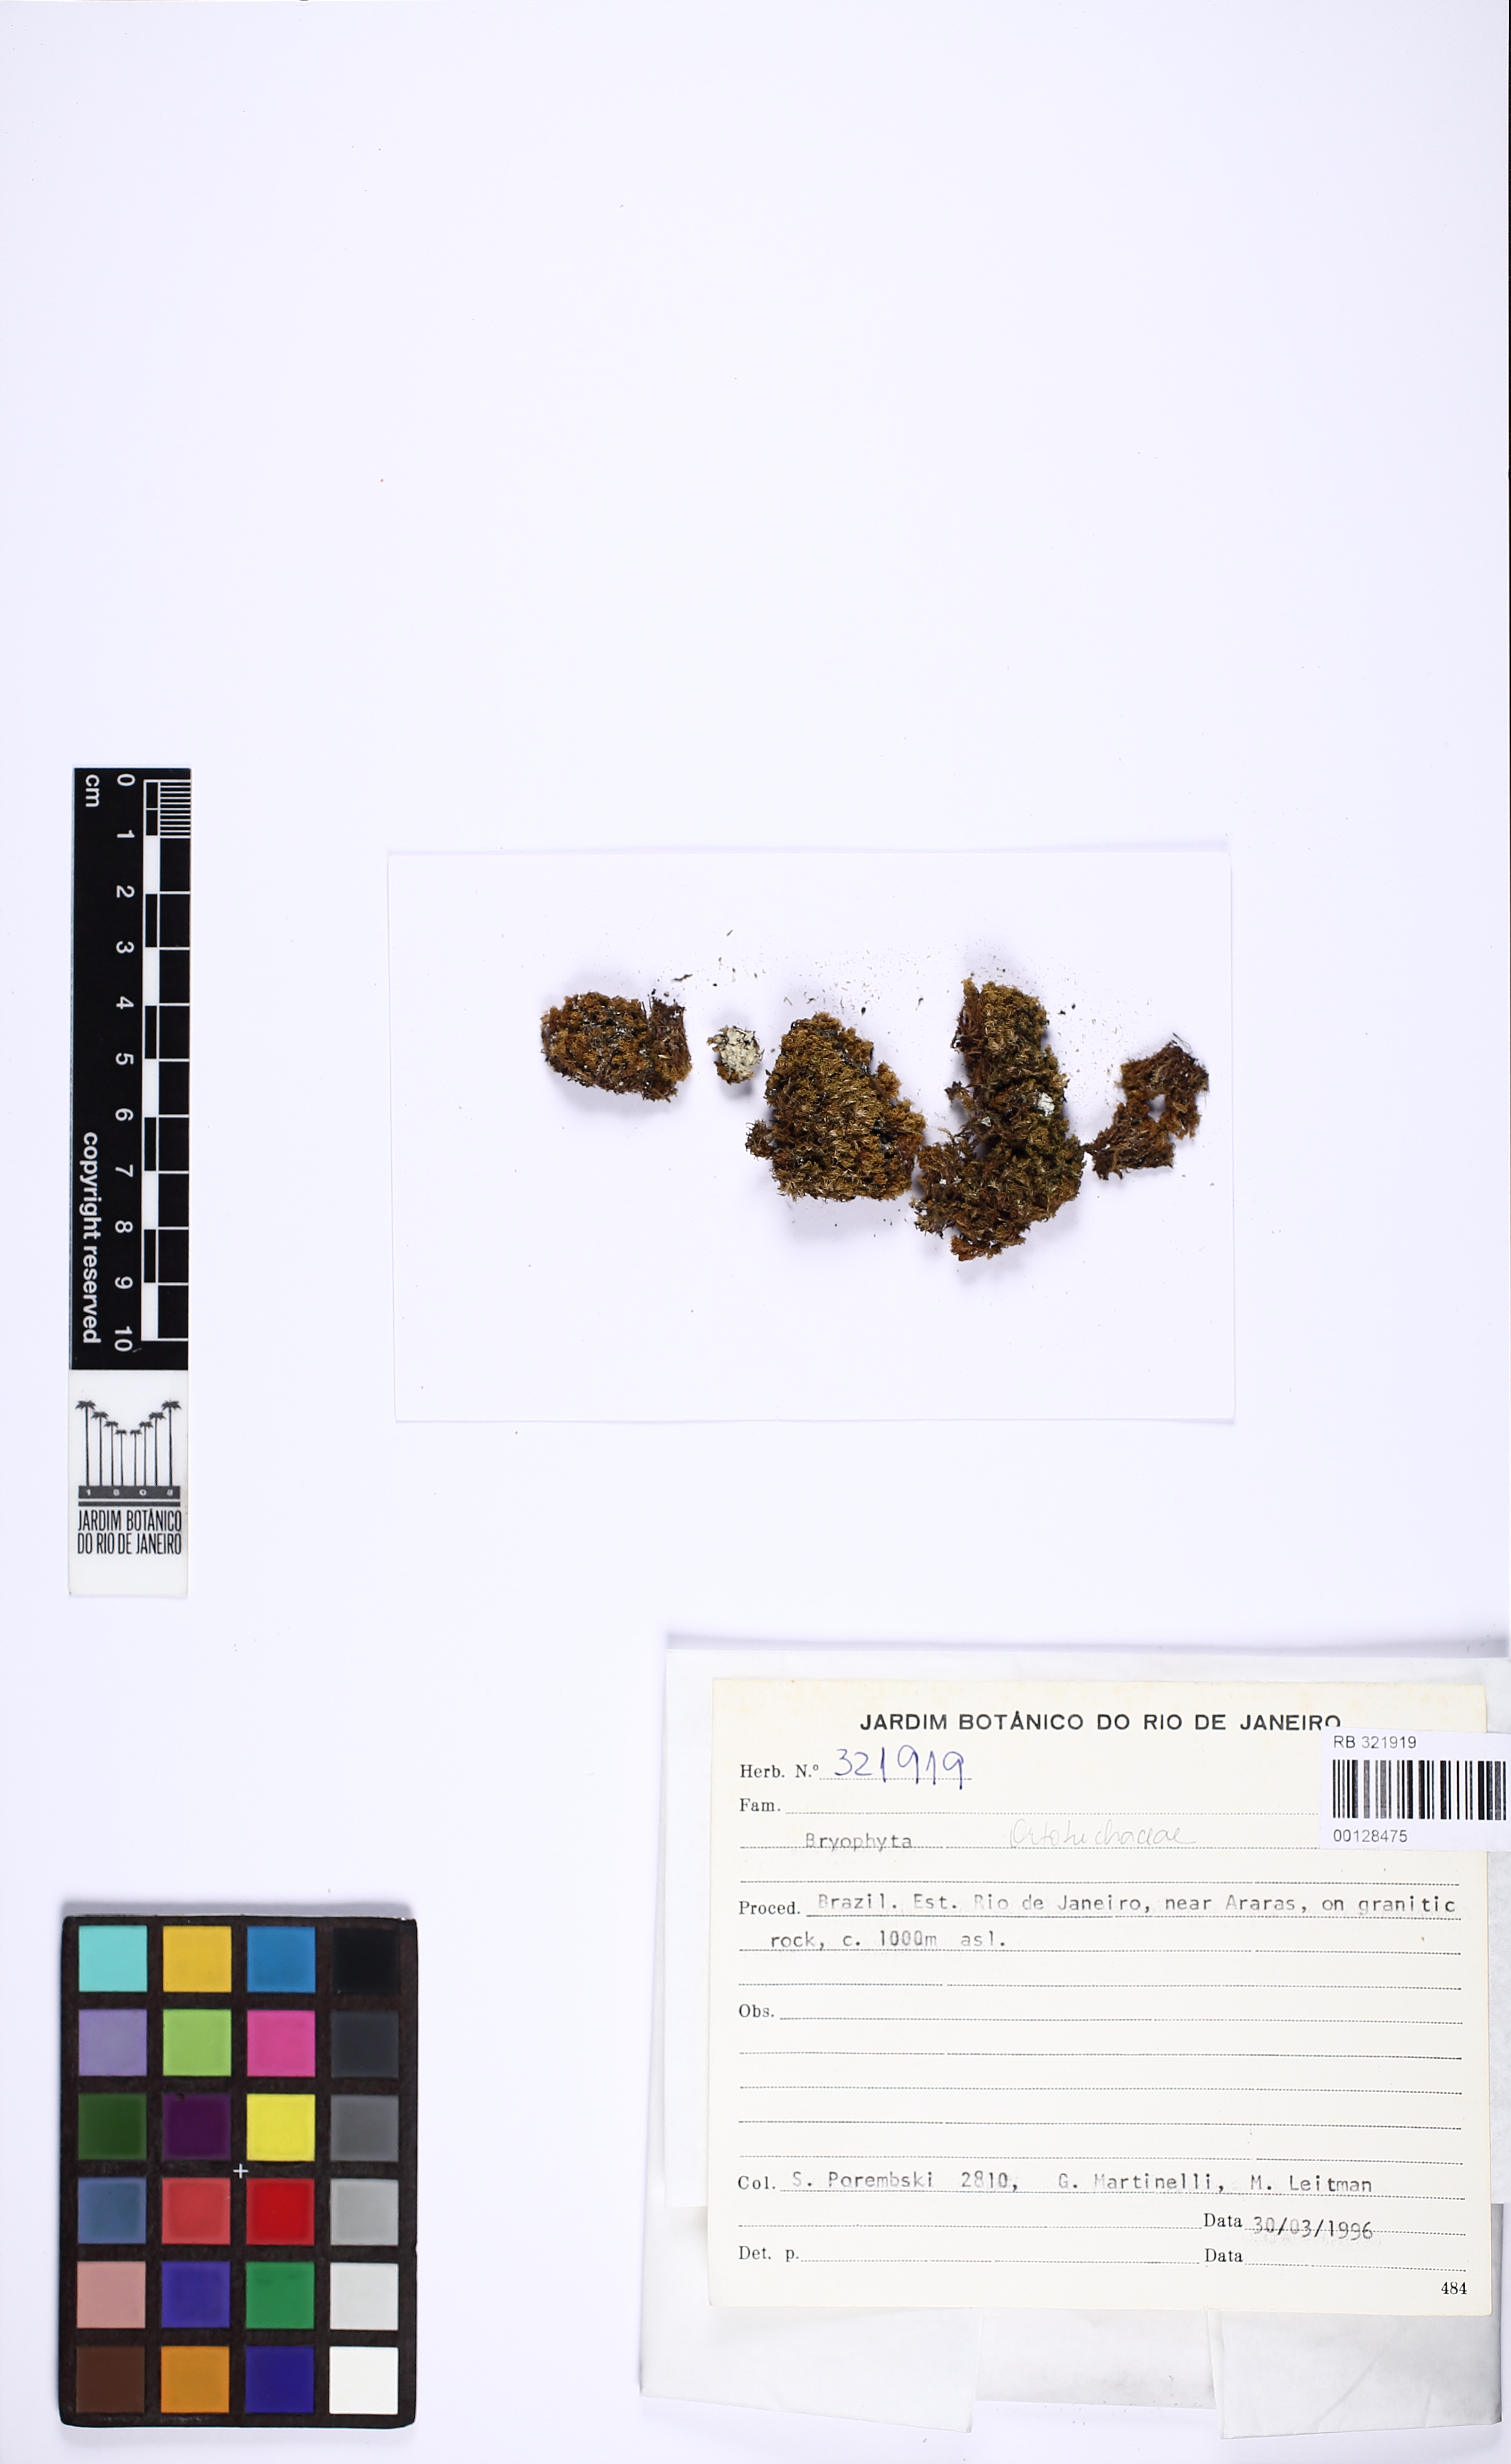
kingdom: Plantae
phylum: Bryophyta
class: Bryopsida
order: Orthotrichales
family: Orthotrichaceae
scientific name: Orthotrichaceae
